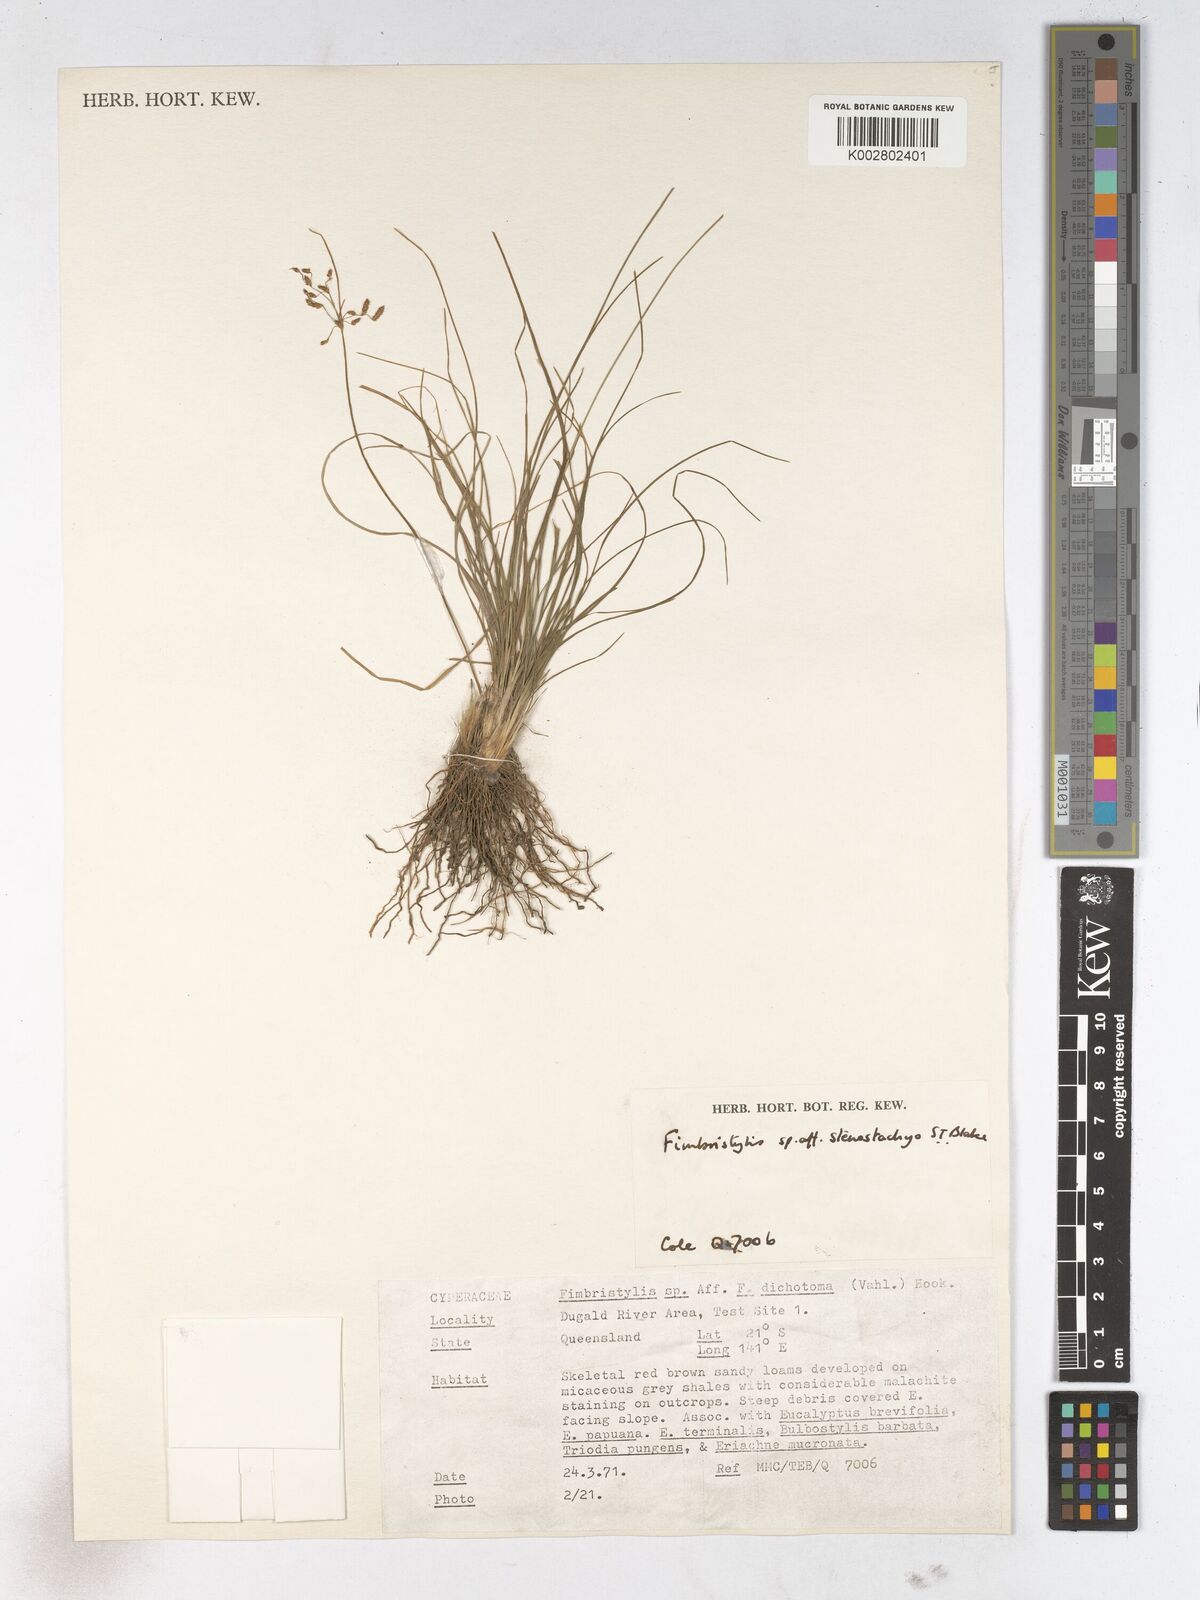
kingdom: Plantae
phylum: Tracheophyta
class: Liliopsida
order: Poales
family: Cyperaceae
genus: Fimbristylis
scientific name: Fimbristylis stenostachya
